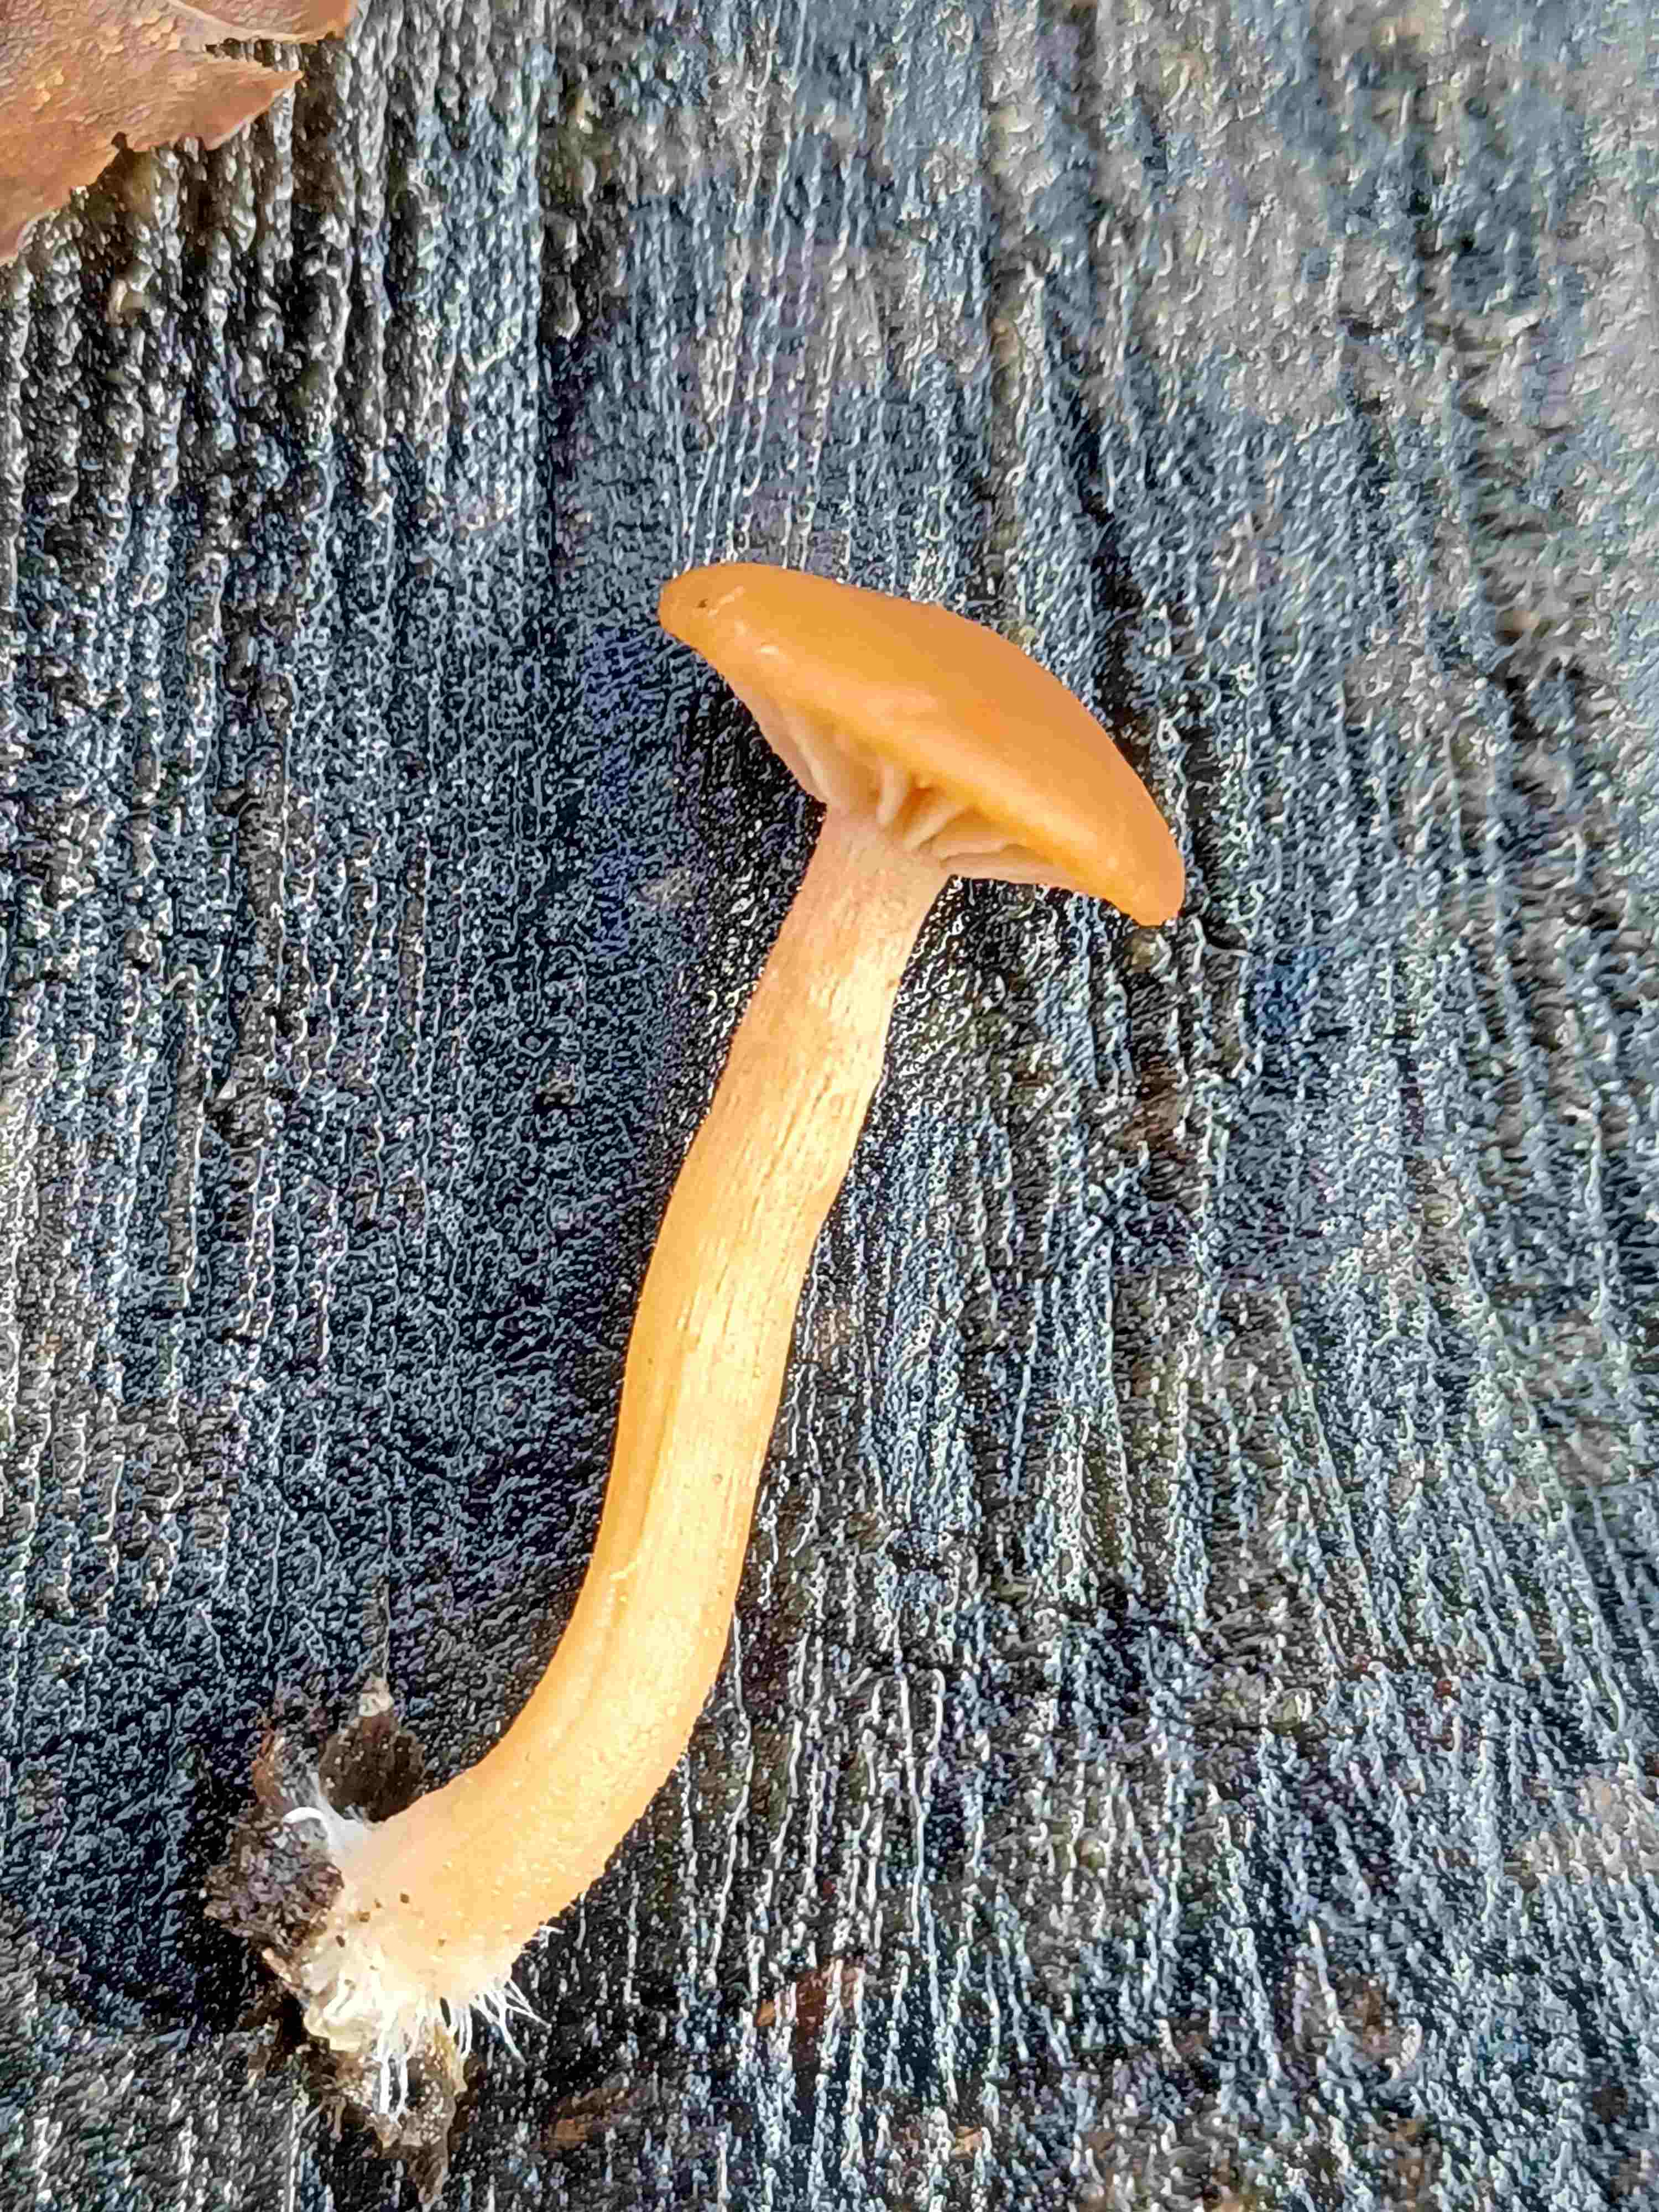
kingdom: Fungi
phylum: Basidiomycota
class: Agaricomycetes
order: Agaricales
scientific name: Agaricales
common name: champignonordenen
